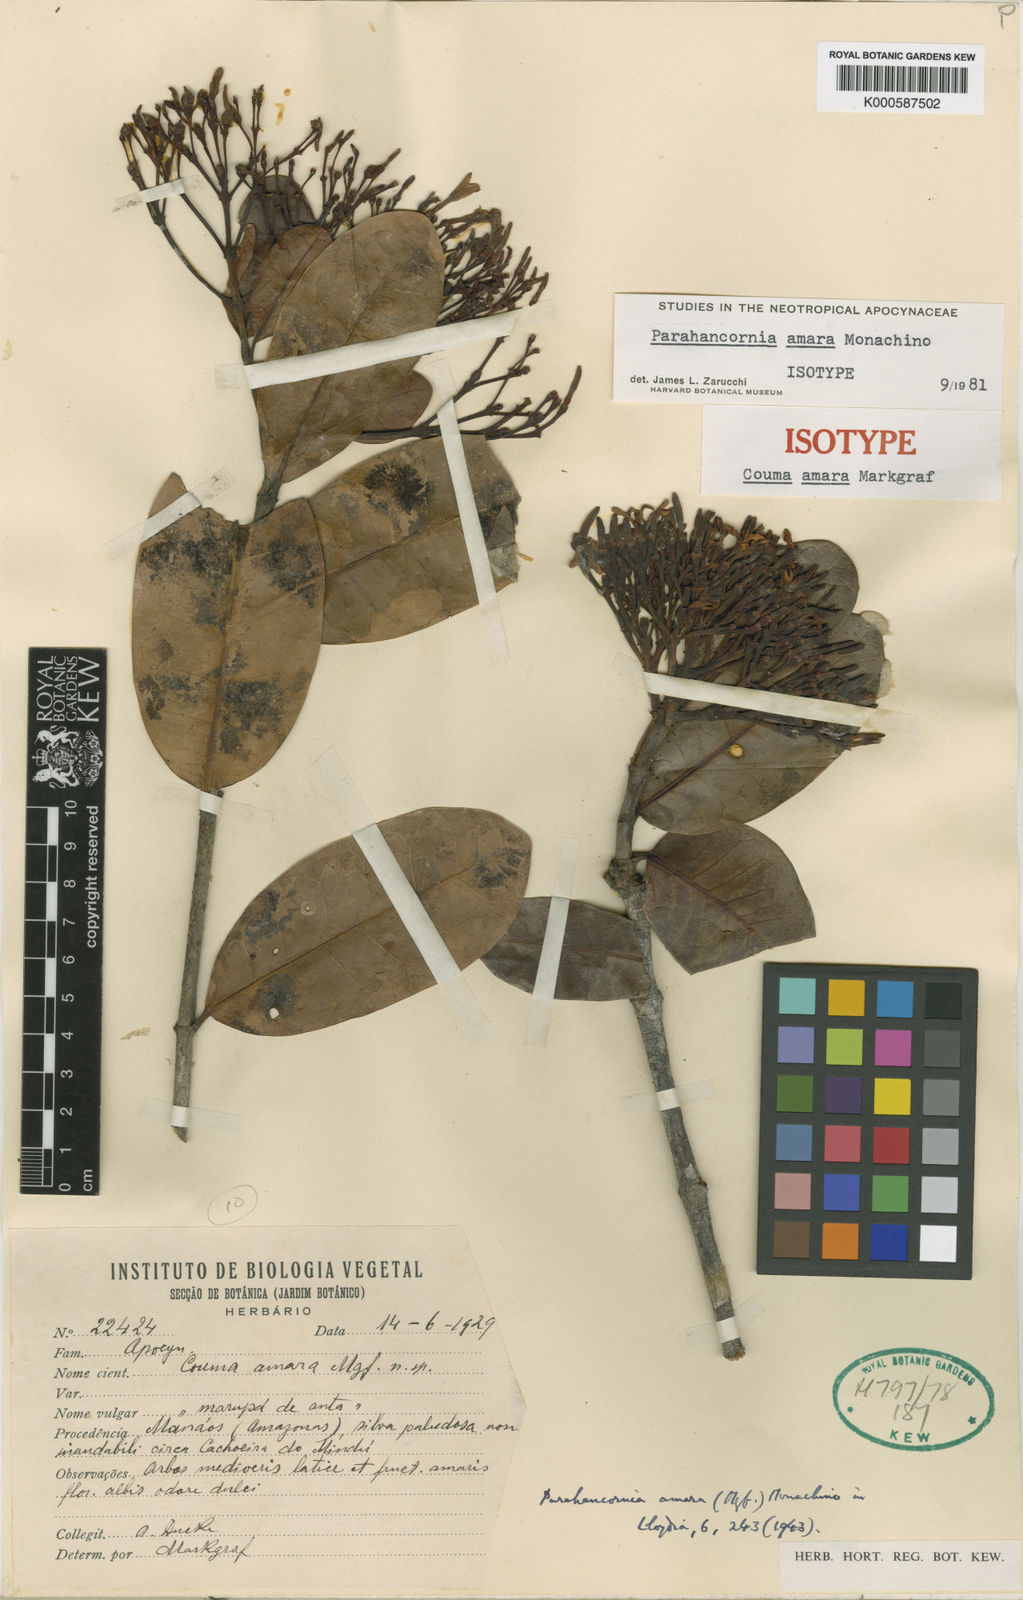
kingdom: Plantae
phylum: Tracheophyta
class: Magnoliopsida
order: Gentianales
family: Apocynaceae
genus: Parahancornia
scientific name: Parahancornia amara
